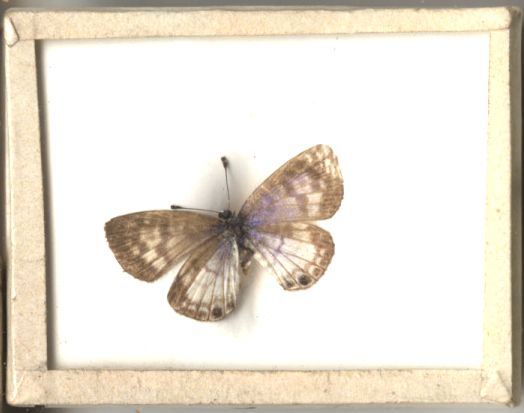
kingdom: Animalia
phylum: Arthropoda
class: Insecta
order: Lepidoptera
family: Lycaenidae
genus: Leptotes
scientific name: Leptotes cassius
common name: Cassius Blue
